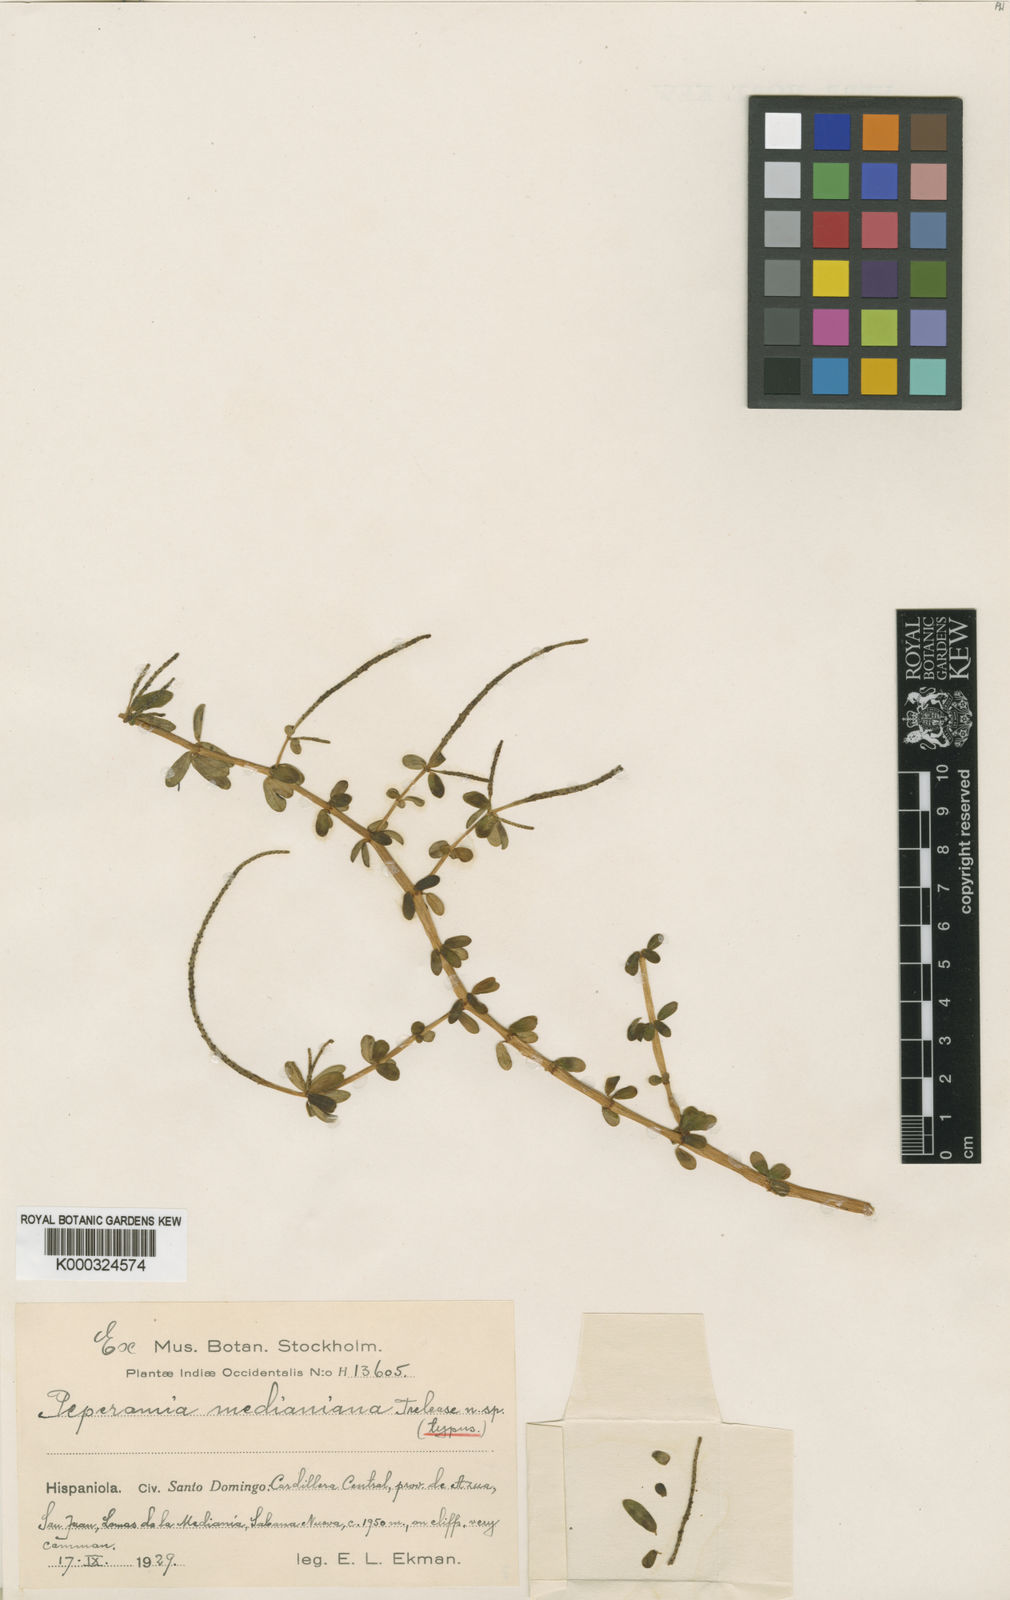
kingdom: Plantae
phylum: Tracheophyta
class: Magnoliopsida
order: Piperales
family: Piperaceae
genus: Peperomia
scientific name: Peperomia galioides
